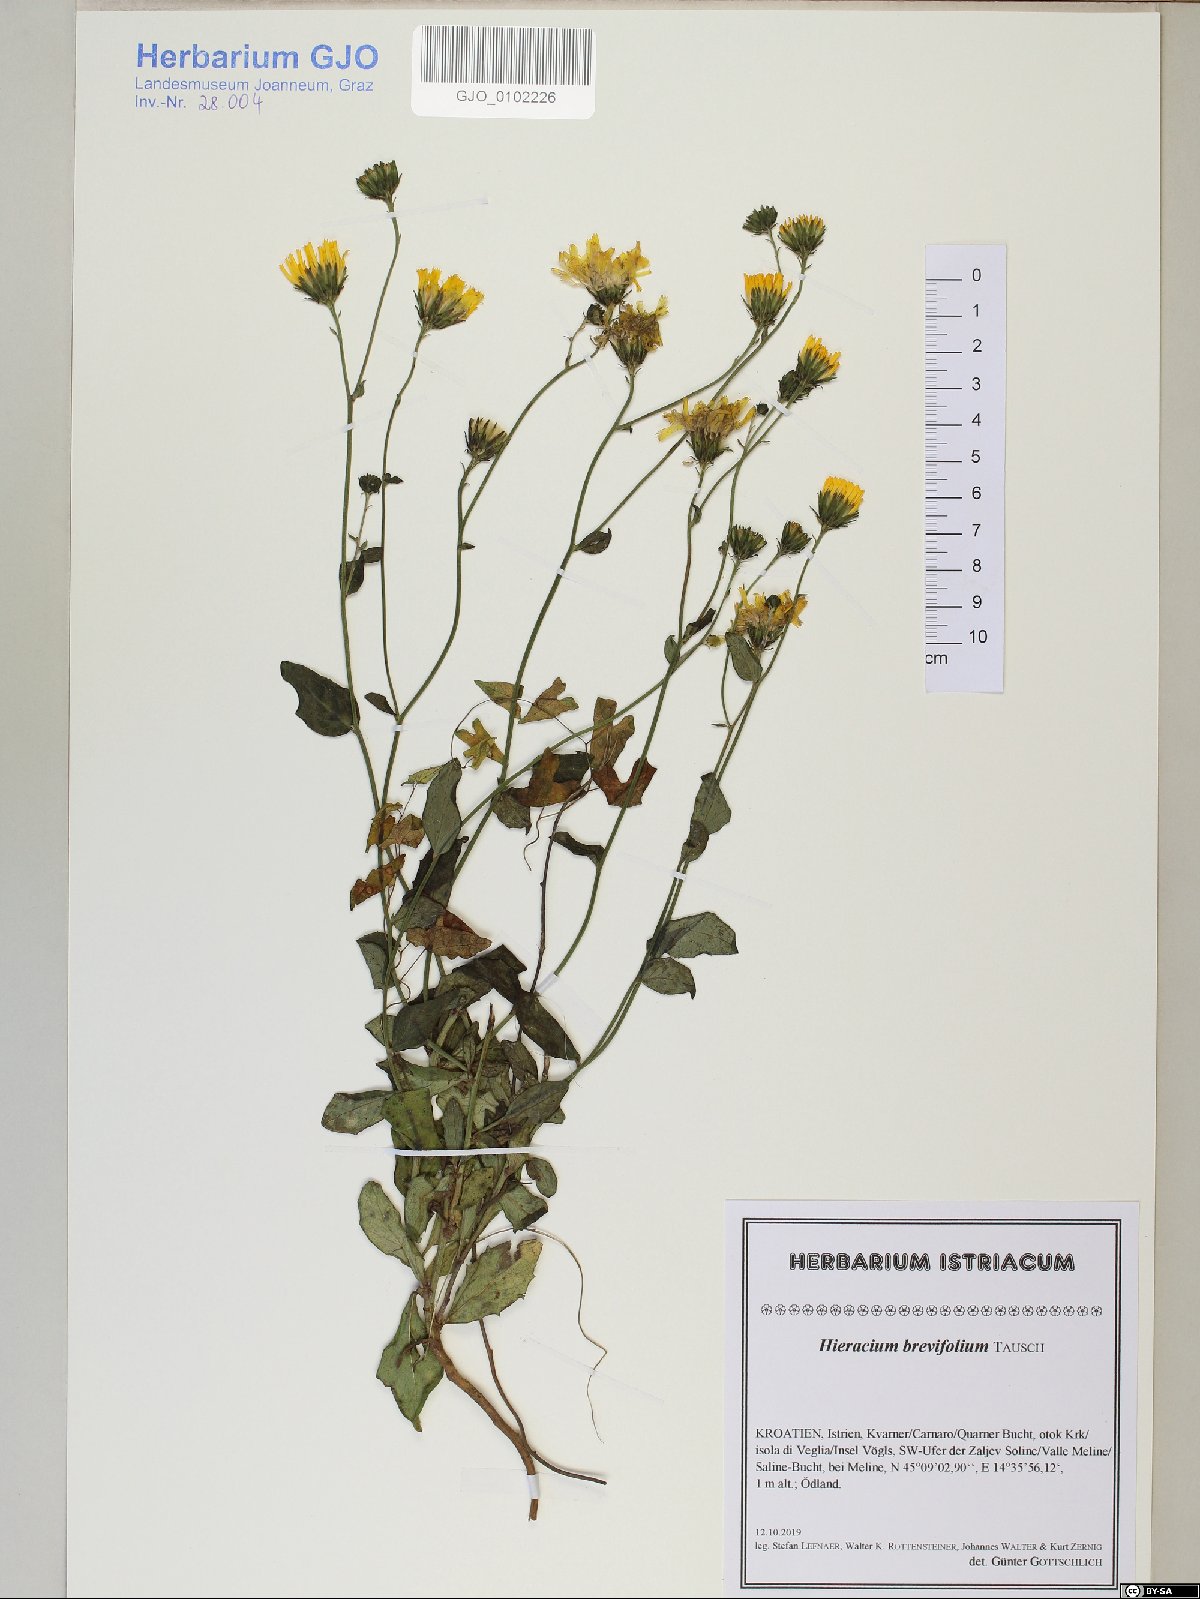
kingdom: Plantae
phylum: Tracheophyta
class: Magnoliopsida
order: Asterales
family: Asteraceae
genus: Hieracium
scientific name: Hieracium brevifolium
